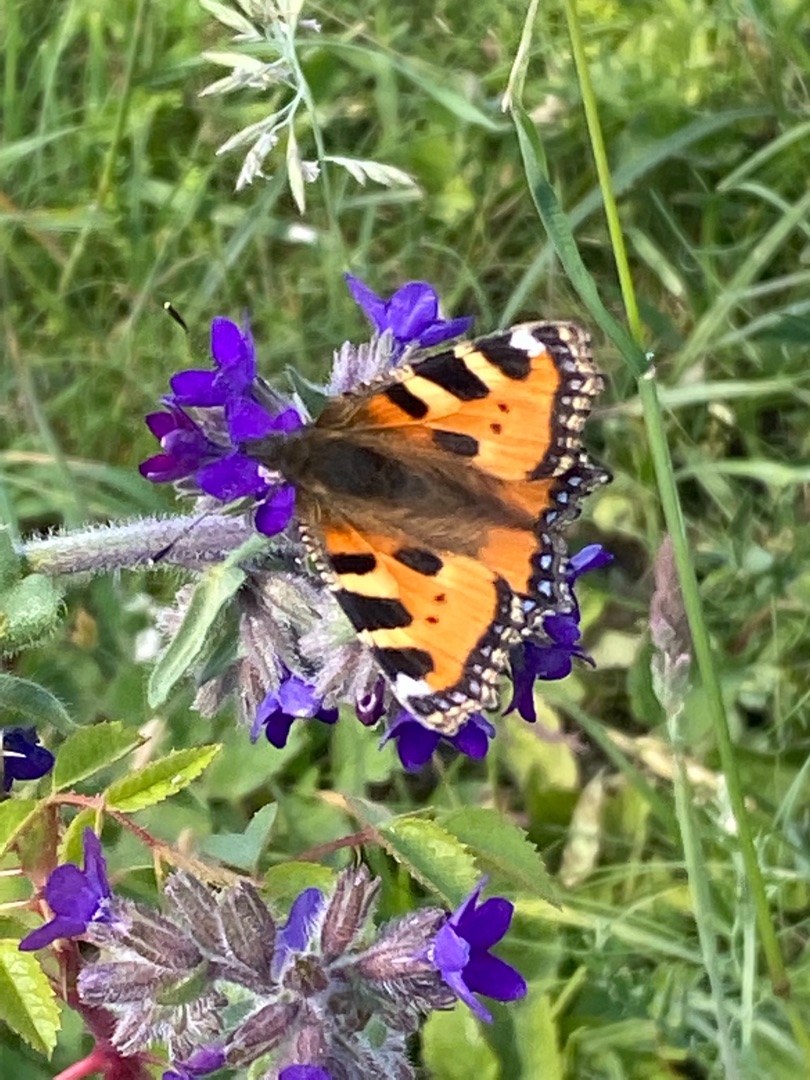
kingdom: Animalia
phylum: Arthropoda
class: Insecta
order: Lepidoptera
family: Nymphalidae
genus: Aglais
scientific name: Aglais urticae
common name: Nældens takvinge
